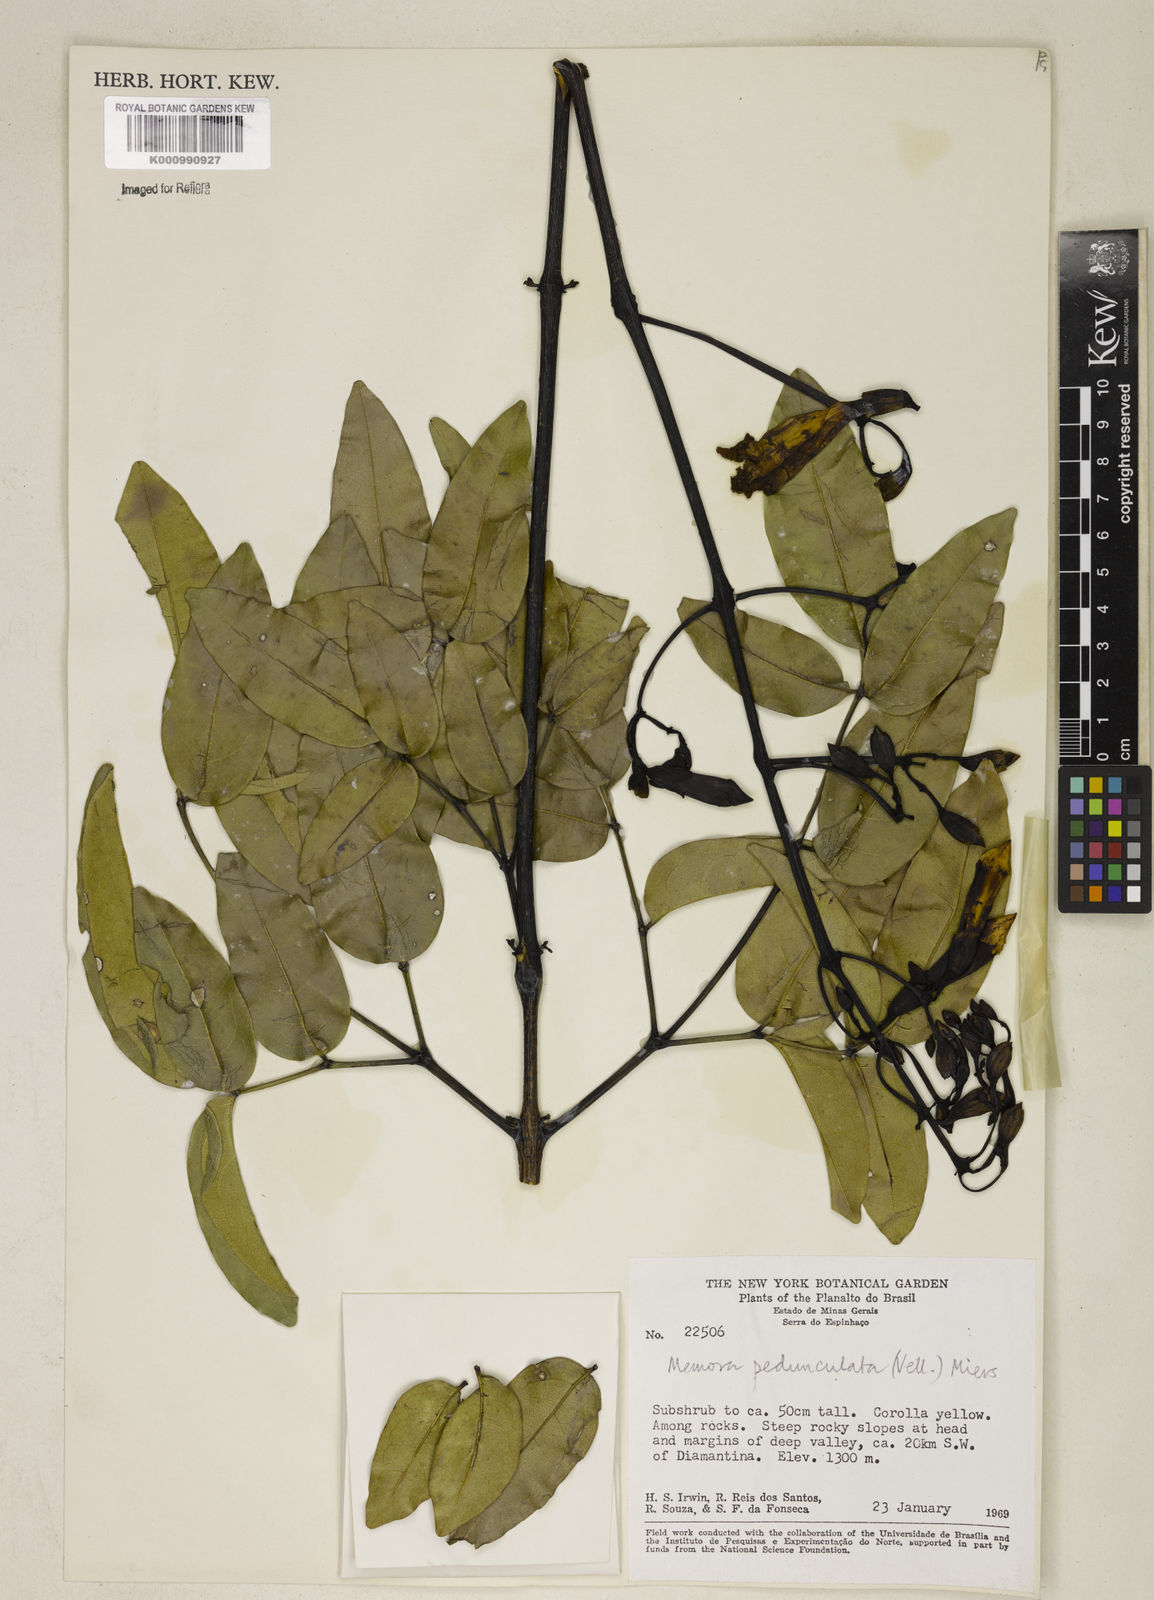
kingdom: Plantae
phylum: Tracheophyta
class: Magnoliopsida
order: Lamiales
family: Bignoniaceae
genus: Adenocalymma
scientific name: Adenocalymma pedunculatum
